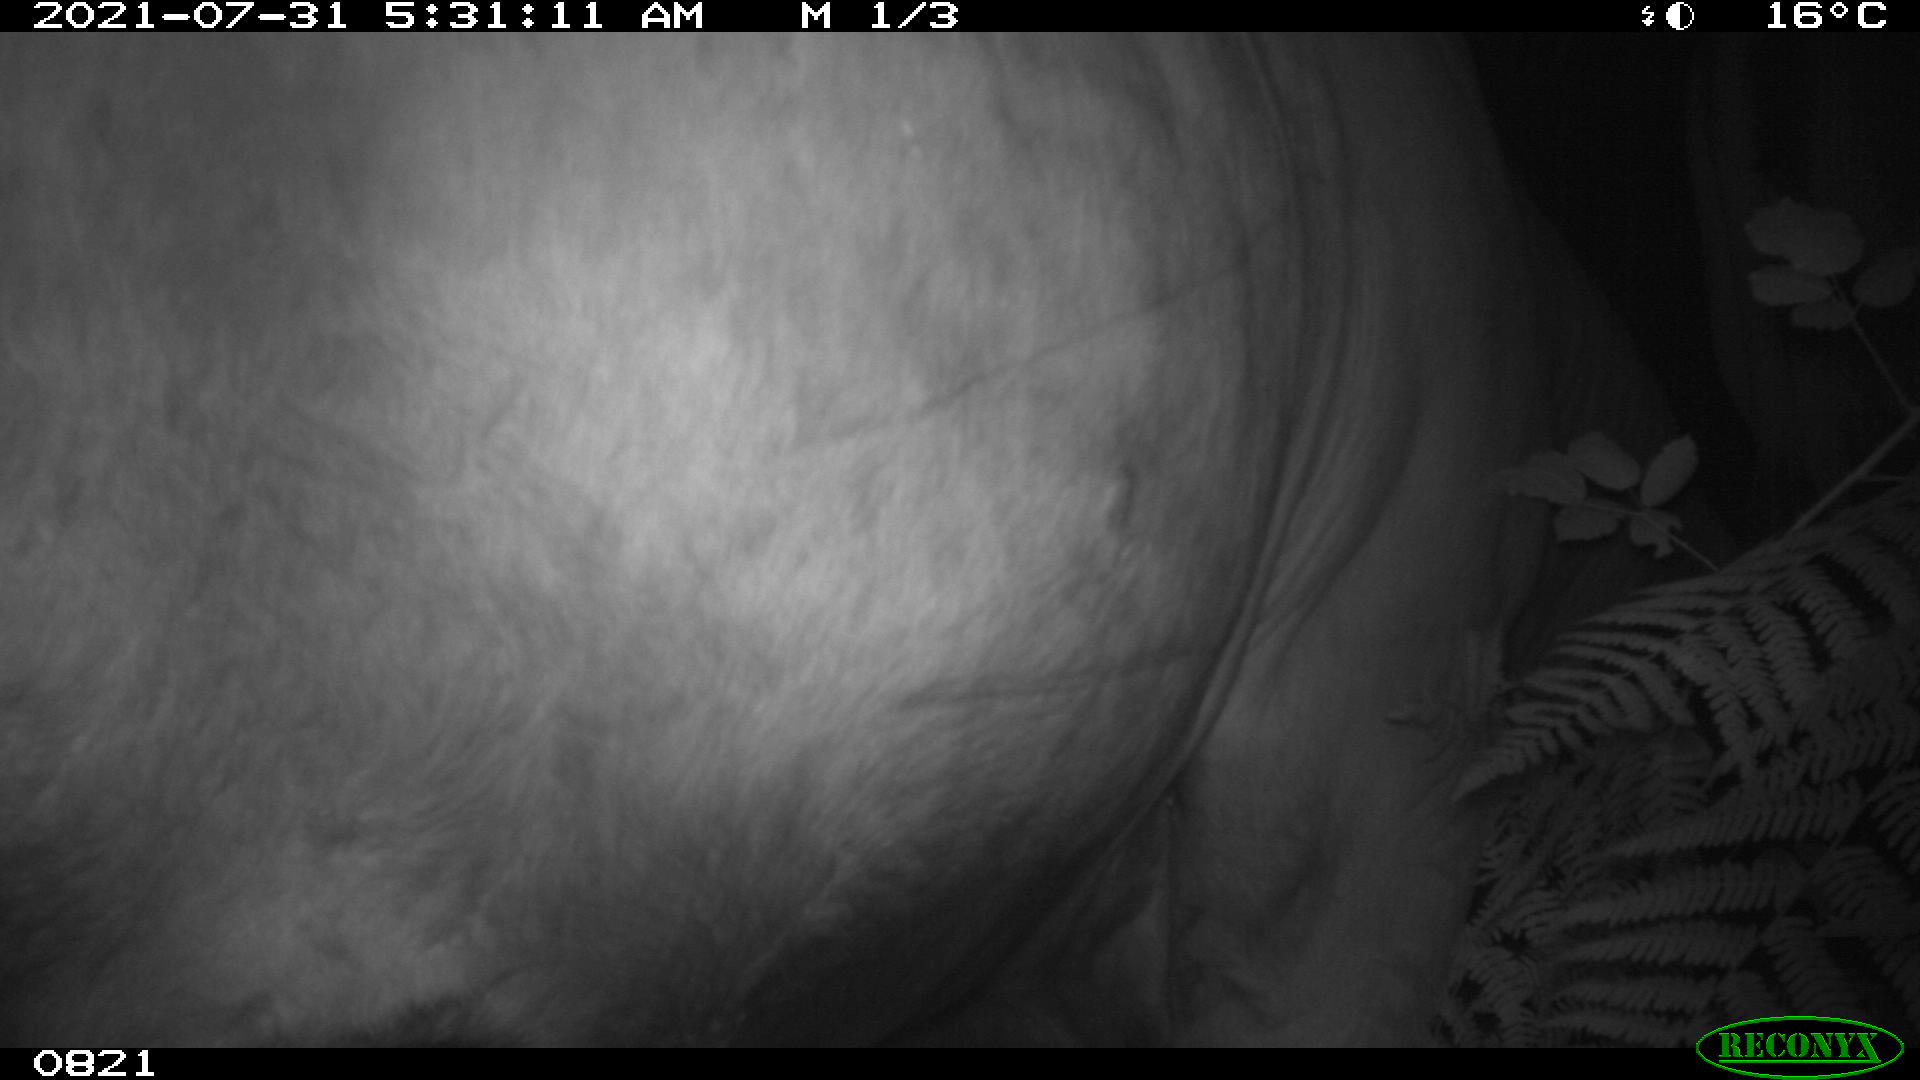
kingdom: Animalia
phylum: Chordata
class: Mammalia
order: Artiodactyla
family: Bovidae
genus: Bos
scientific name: Bos taurus
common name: Domesticated cattle
